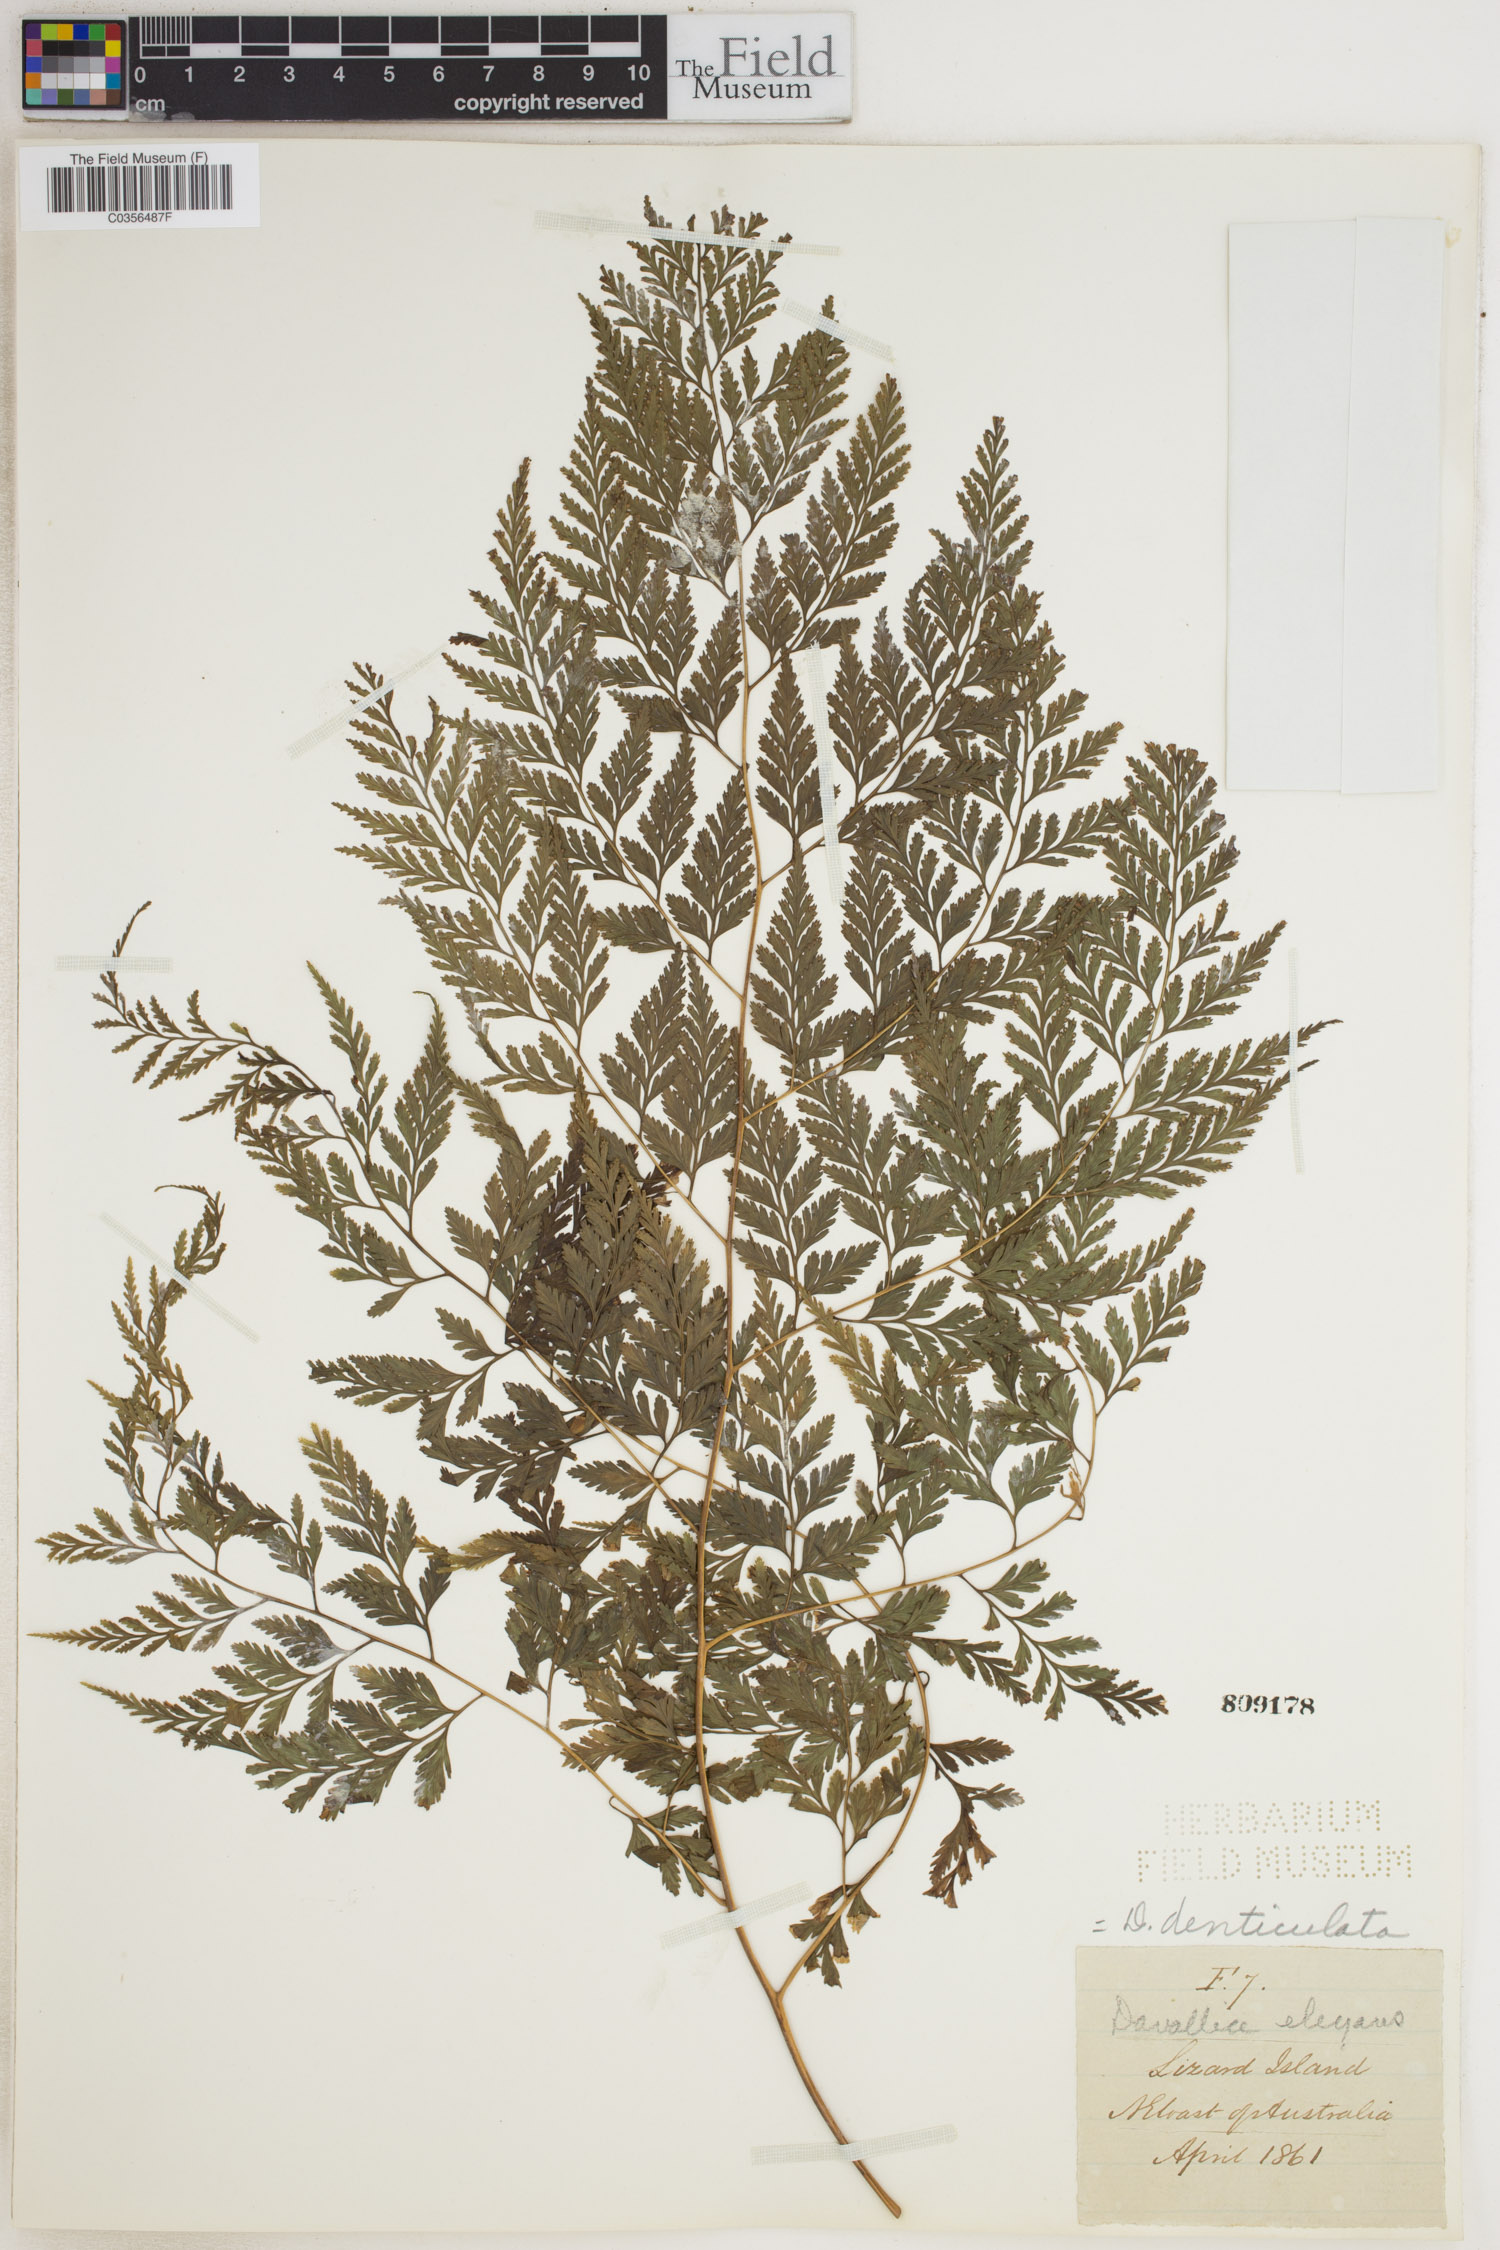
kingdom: Plantae
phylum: Tracheophyta
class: Polypodiopsida
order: Polypodiales
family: Davalliaceae
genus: Davallia
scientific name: Davallia denticulata
